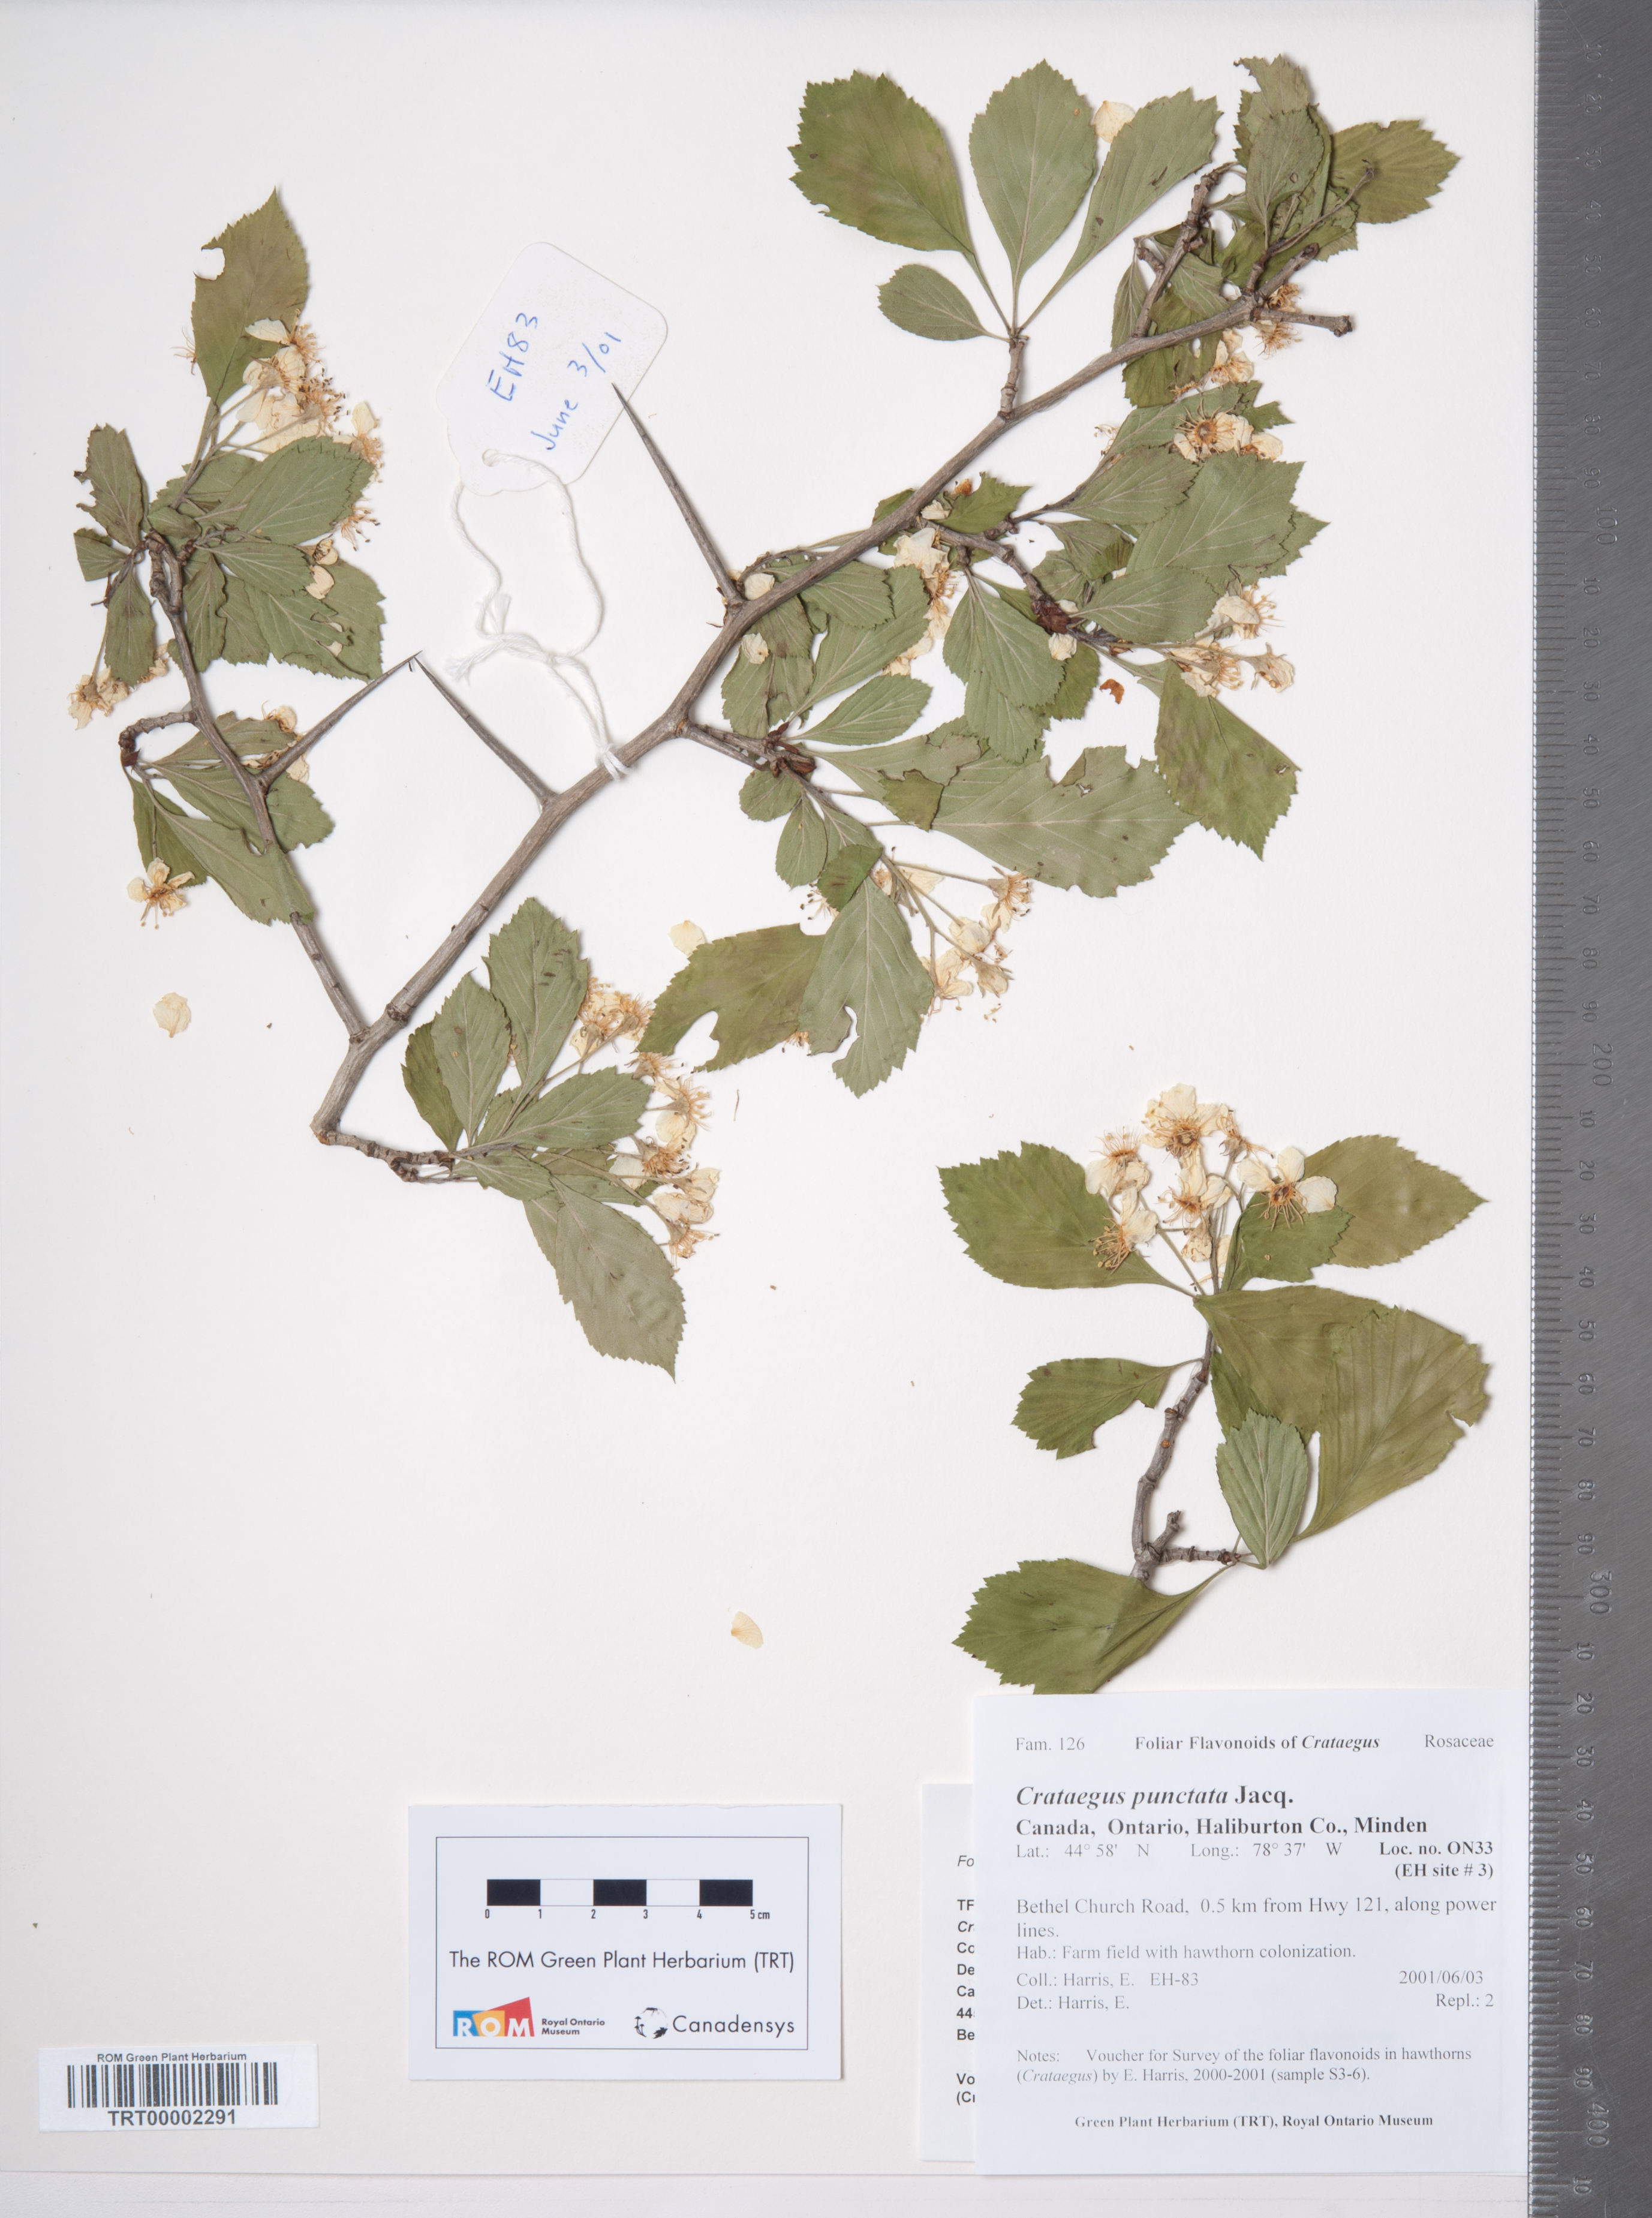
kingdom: Plantae
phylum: Tracheophyta
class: Magnoliopsida
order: Rosales
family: Rosaceae
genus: Crataegus
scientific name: Crataegus punctata
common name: Dotted hawthorn
